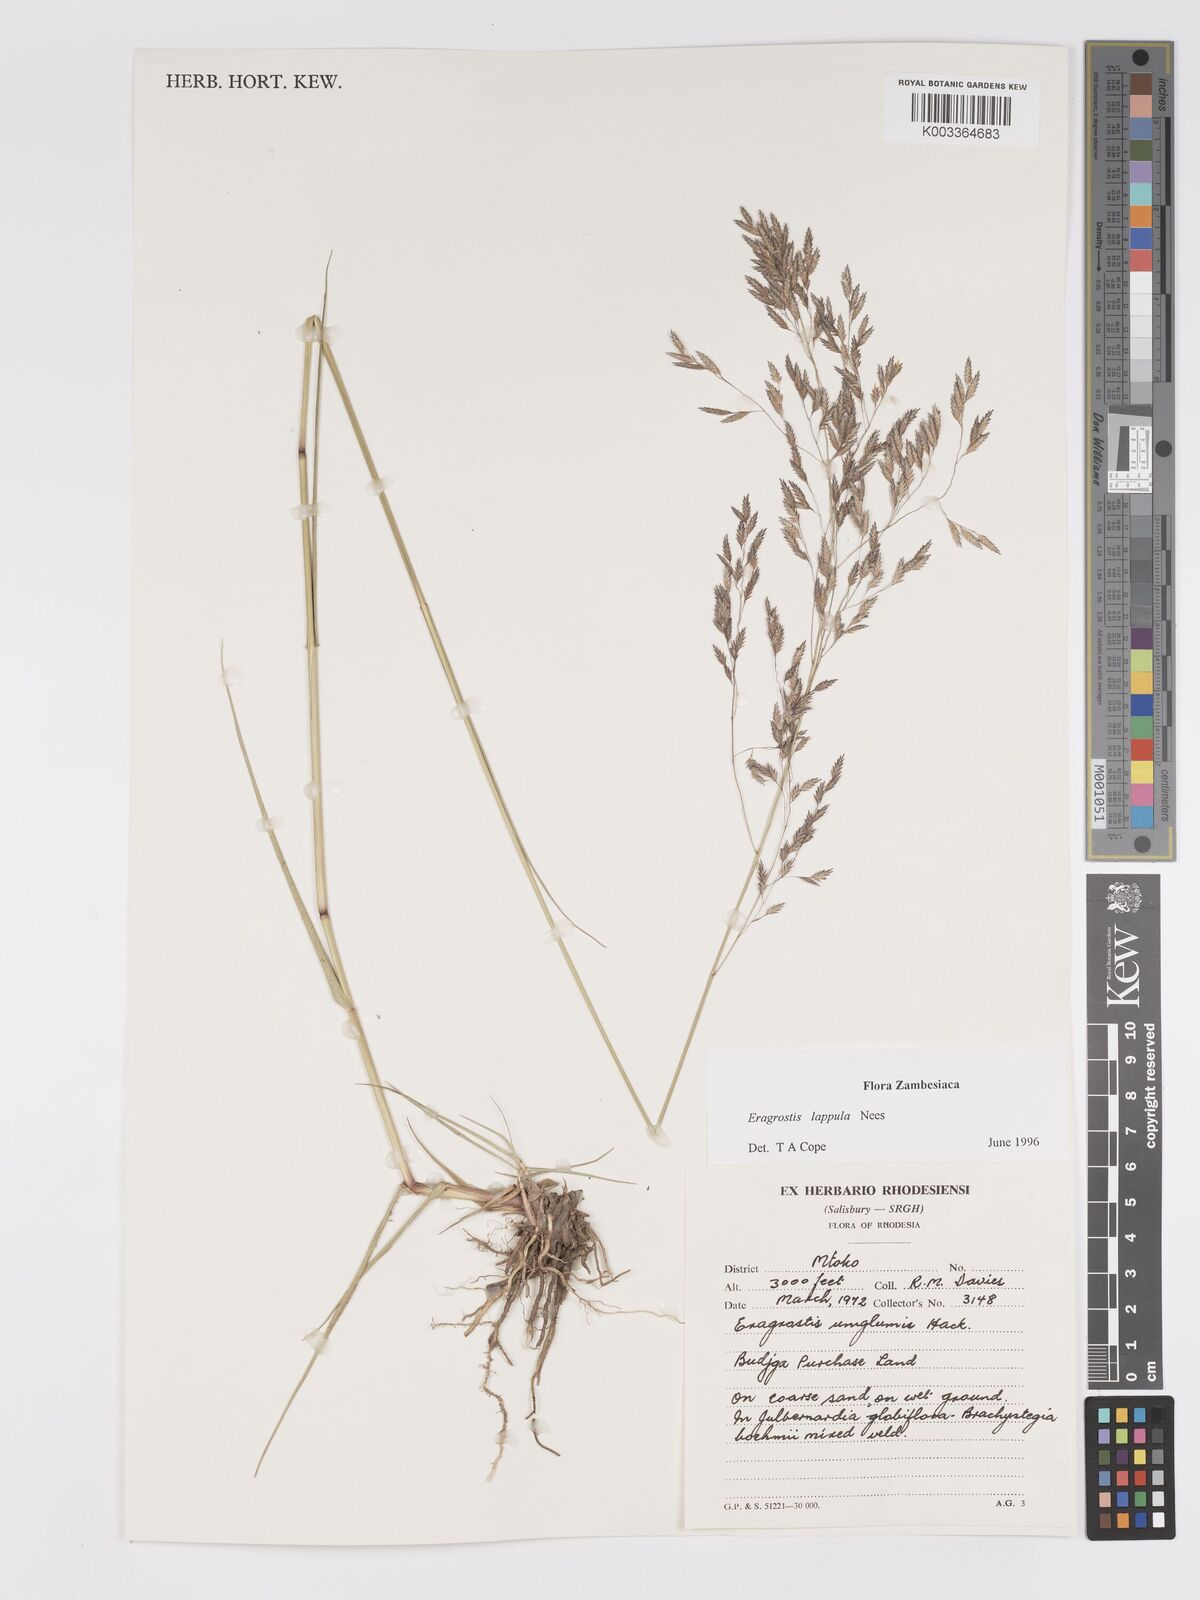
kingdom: Plantae
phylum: Tracheophyta
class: Liliopsida
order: Poales
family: Poaceae
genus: Eragrostis
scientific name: Eragrostis lappula
